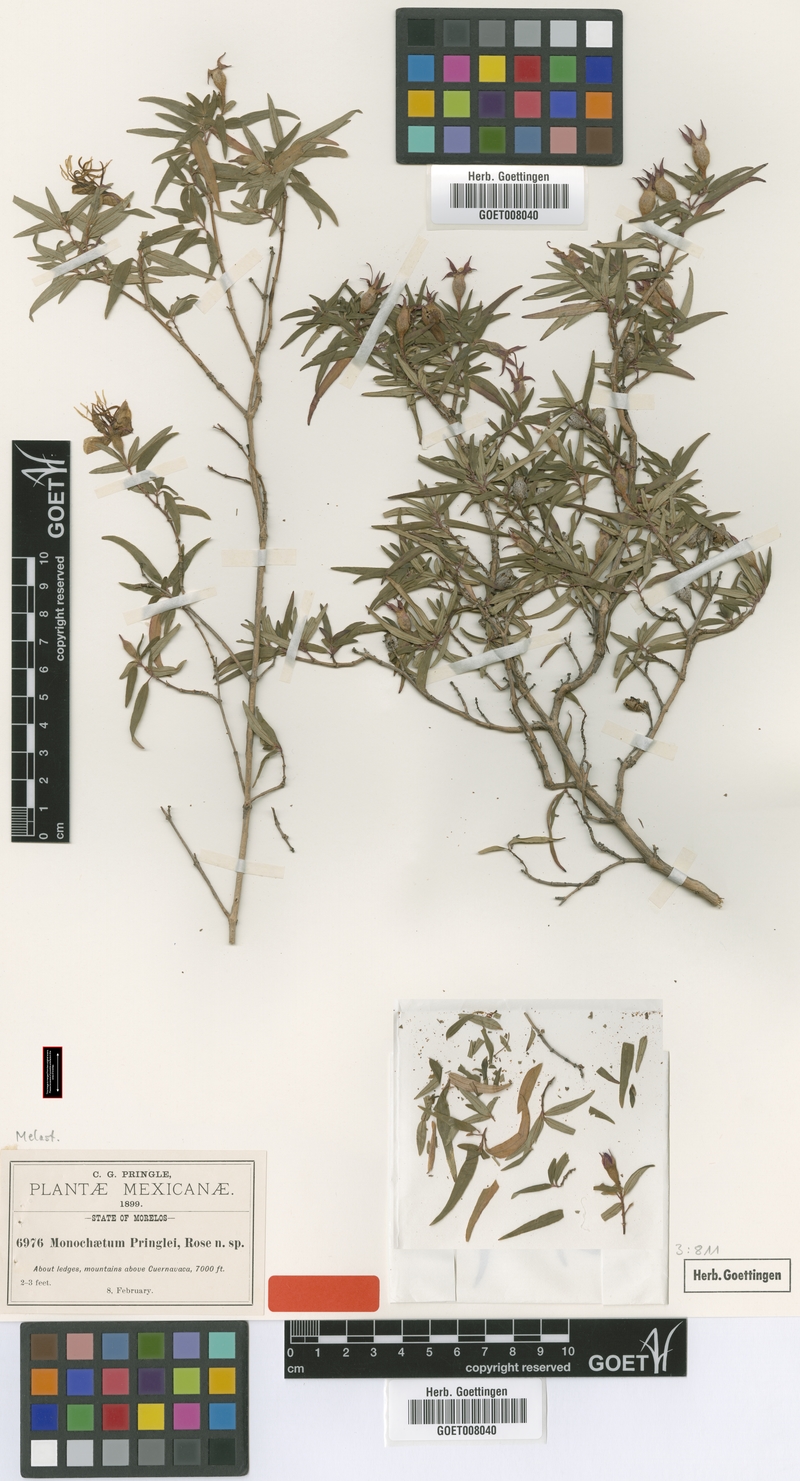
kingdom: Plantae
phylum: Tracheophyta
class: Magnoliopsida
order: Myrtales
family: Melastomataceae
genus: Monochaetum
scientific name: Monochaetum calcaratum
